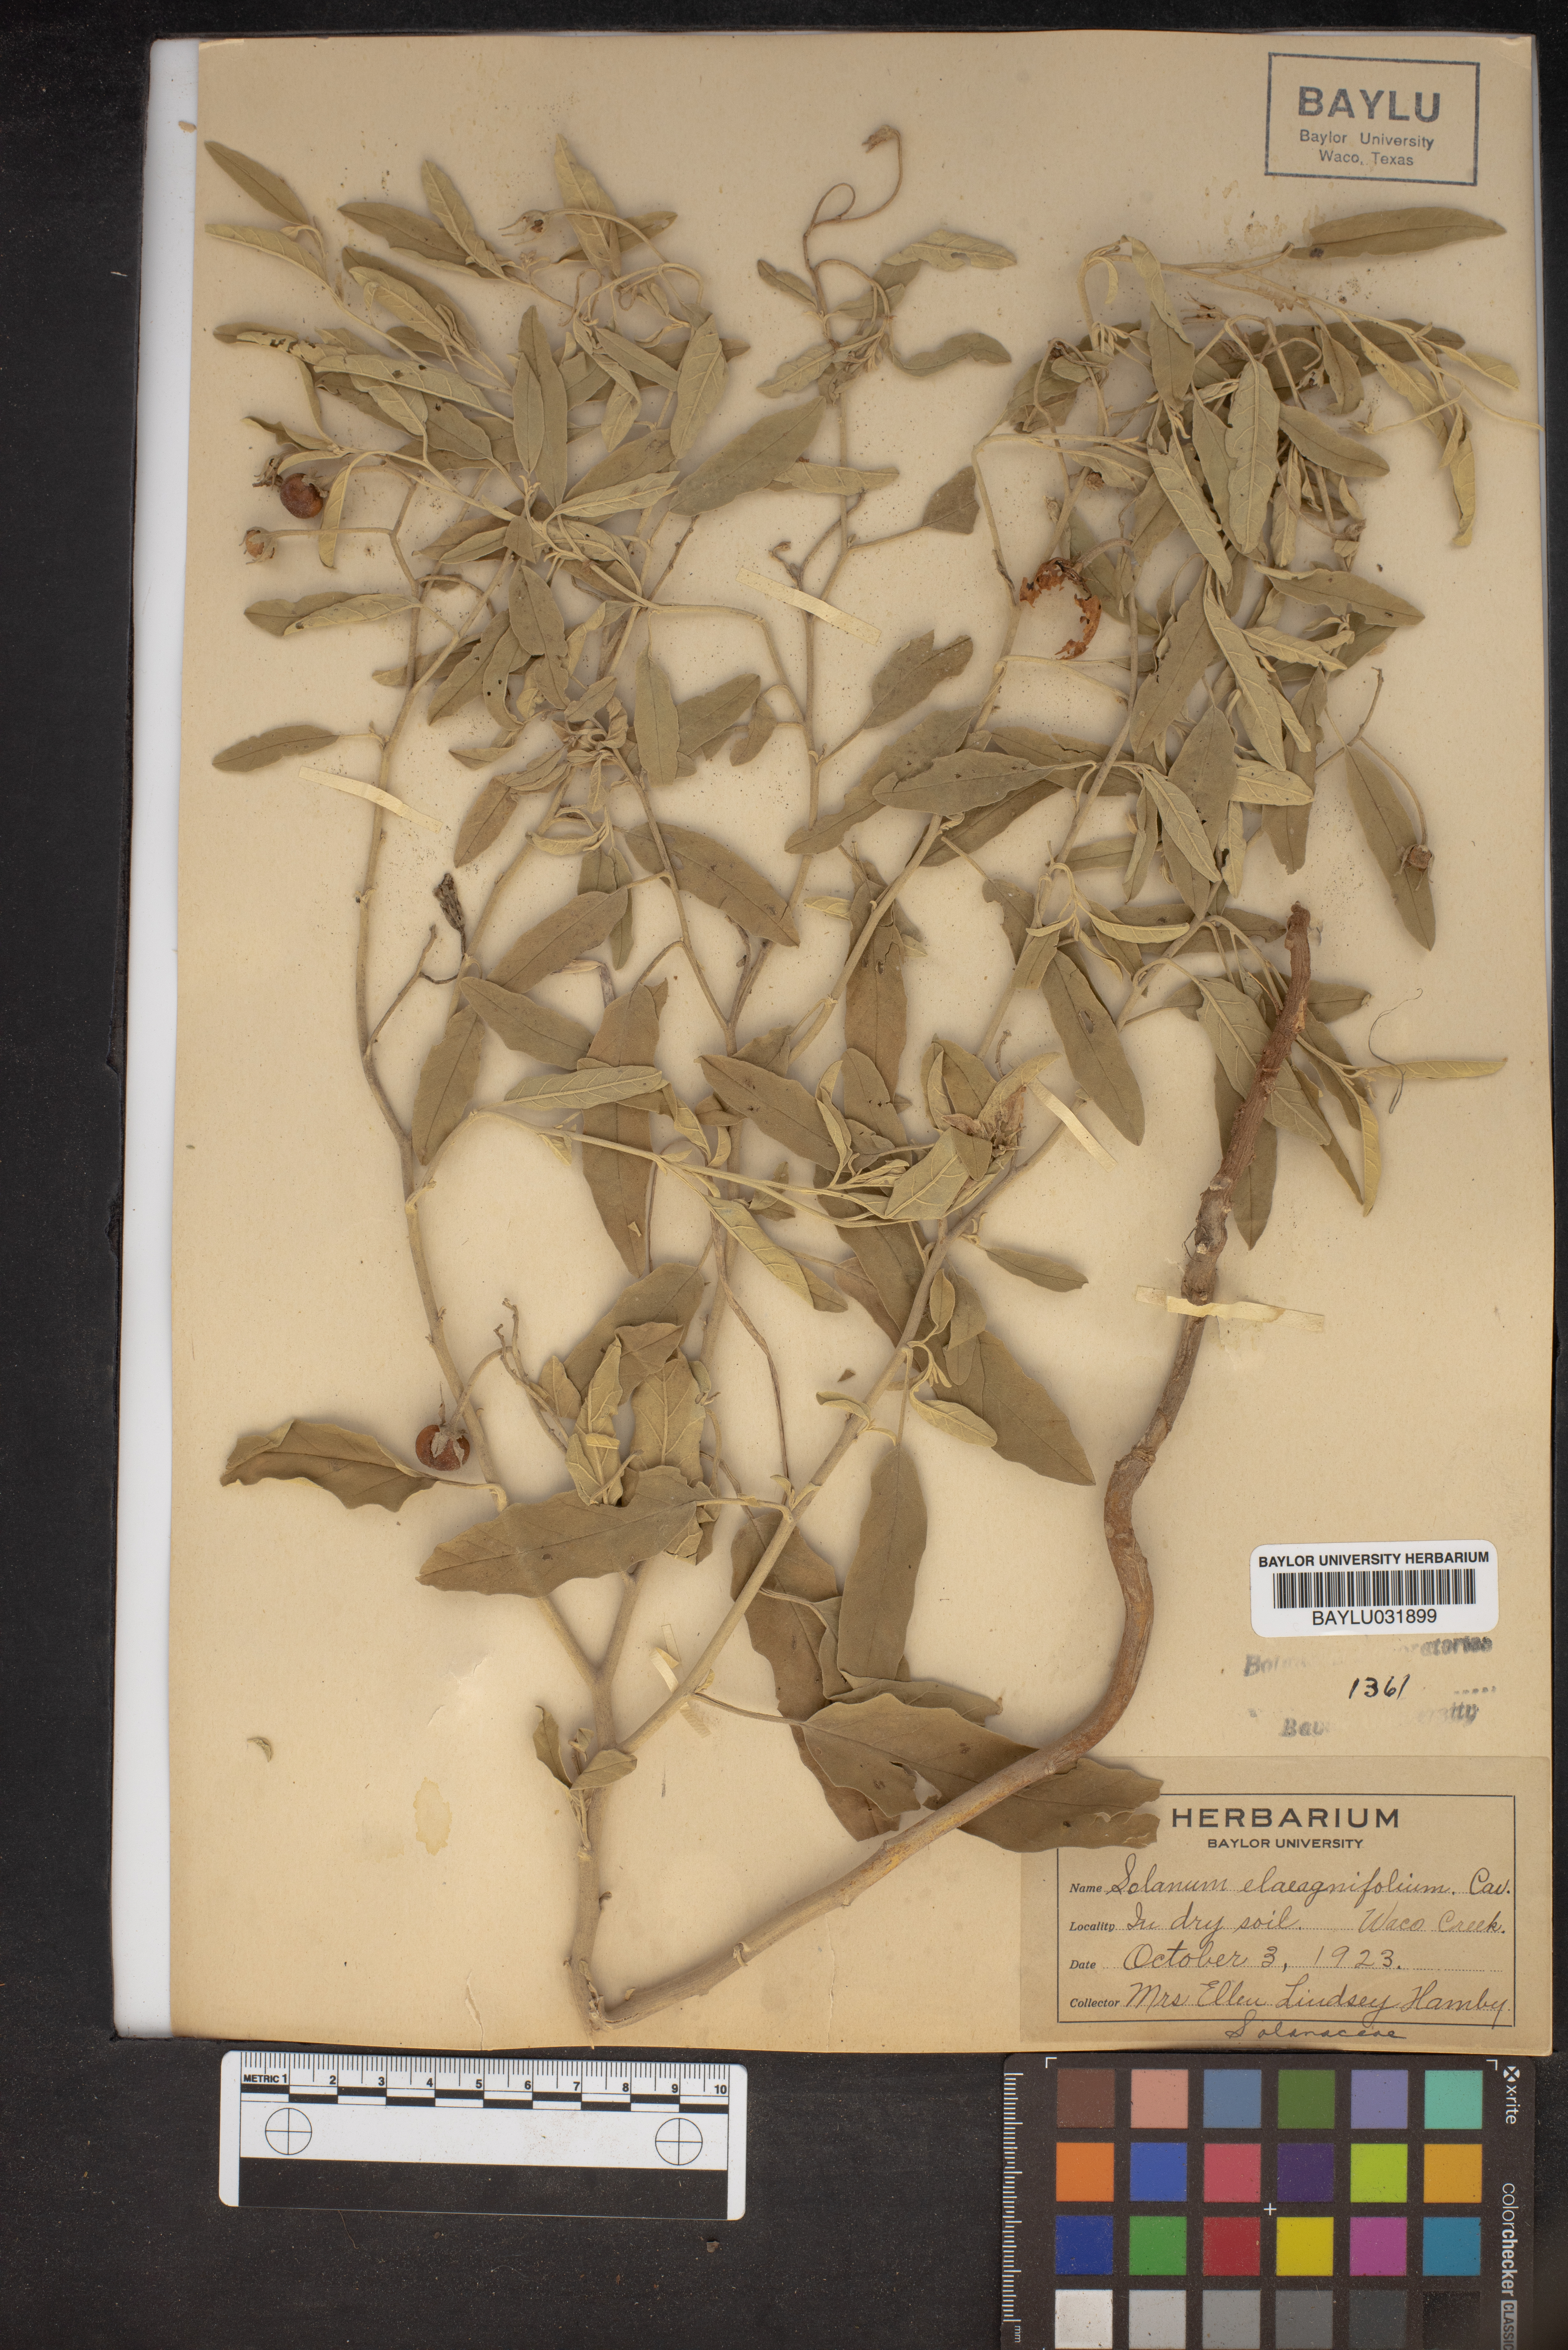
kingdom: Plantae
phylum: Tracheophyta
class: Magnoliopsida
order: Solanales
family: Solanaceae
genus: Solanum
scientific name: Solanum elaeagnifolium
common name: Silverleaf nightshade
